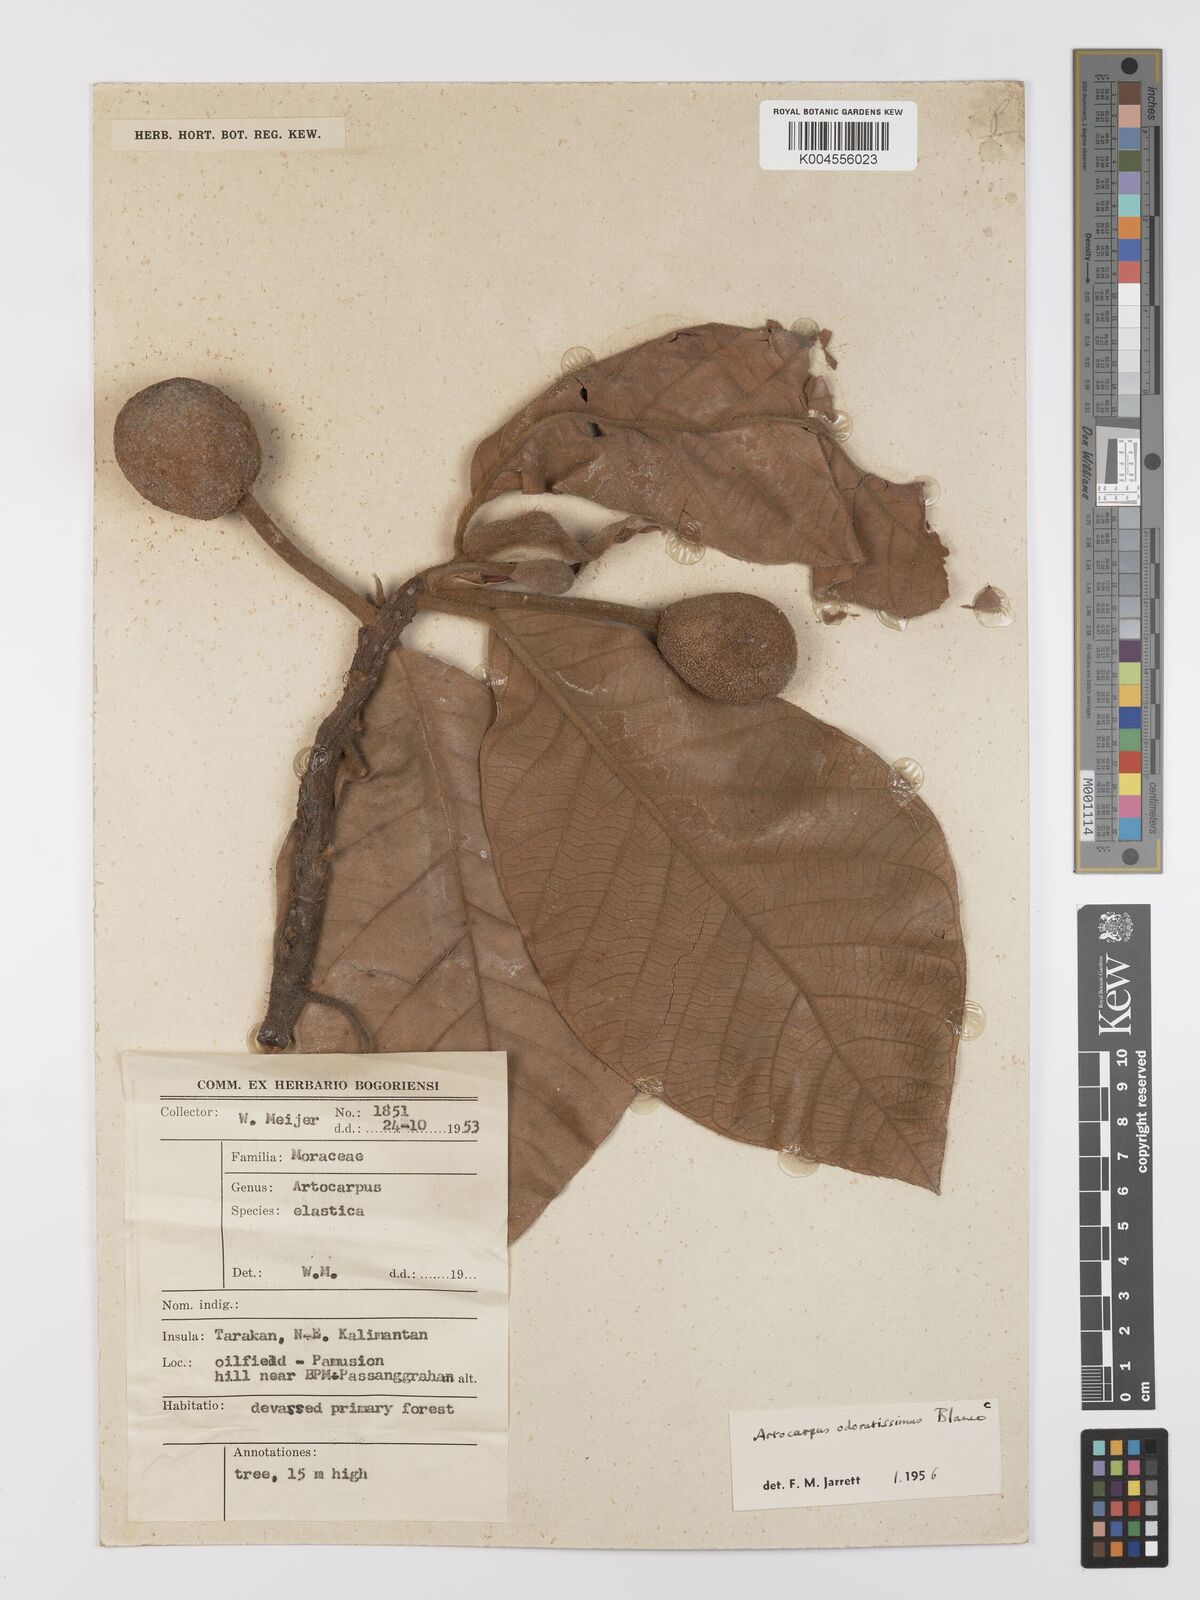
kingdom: Plantae
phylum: Tracheophyta
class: Magnoliopsida
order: Rosales
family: Moraceae
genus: Artocarpus
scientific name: Artocarpus odoratissimus
